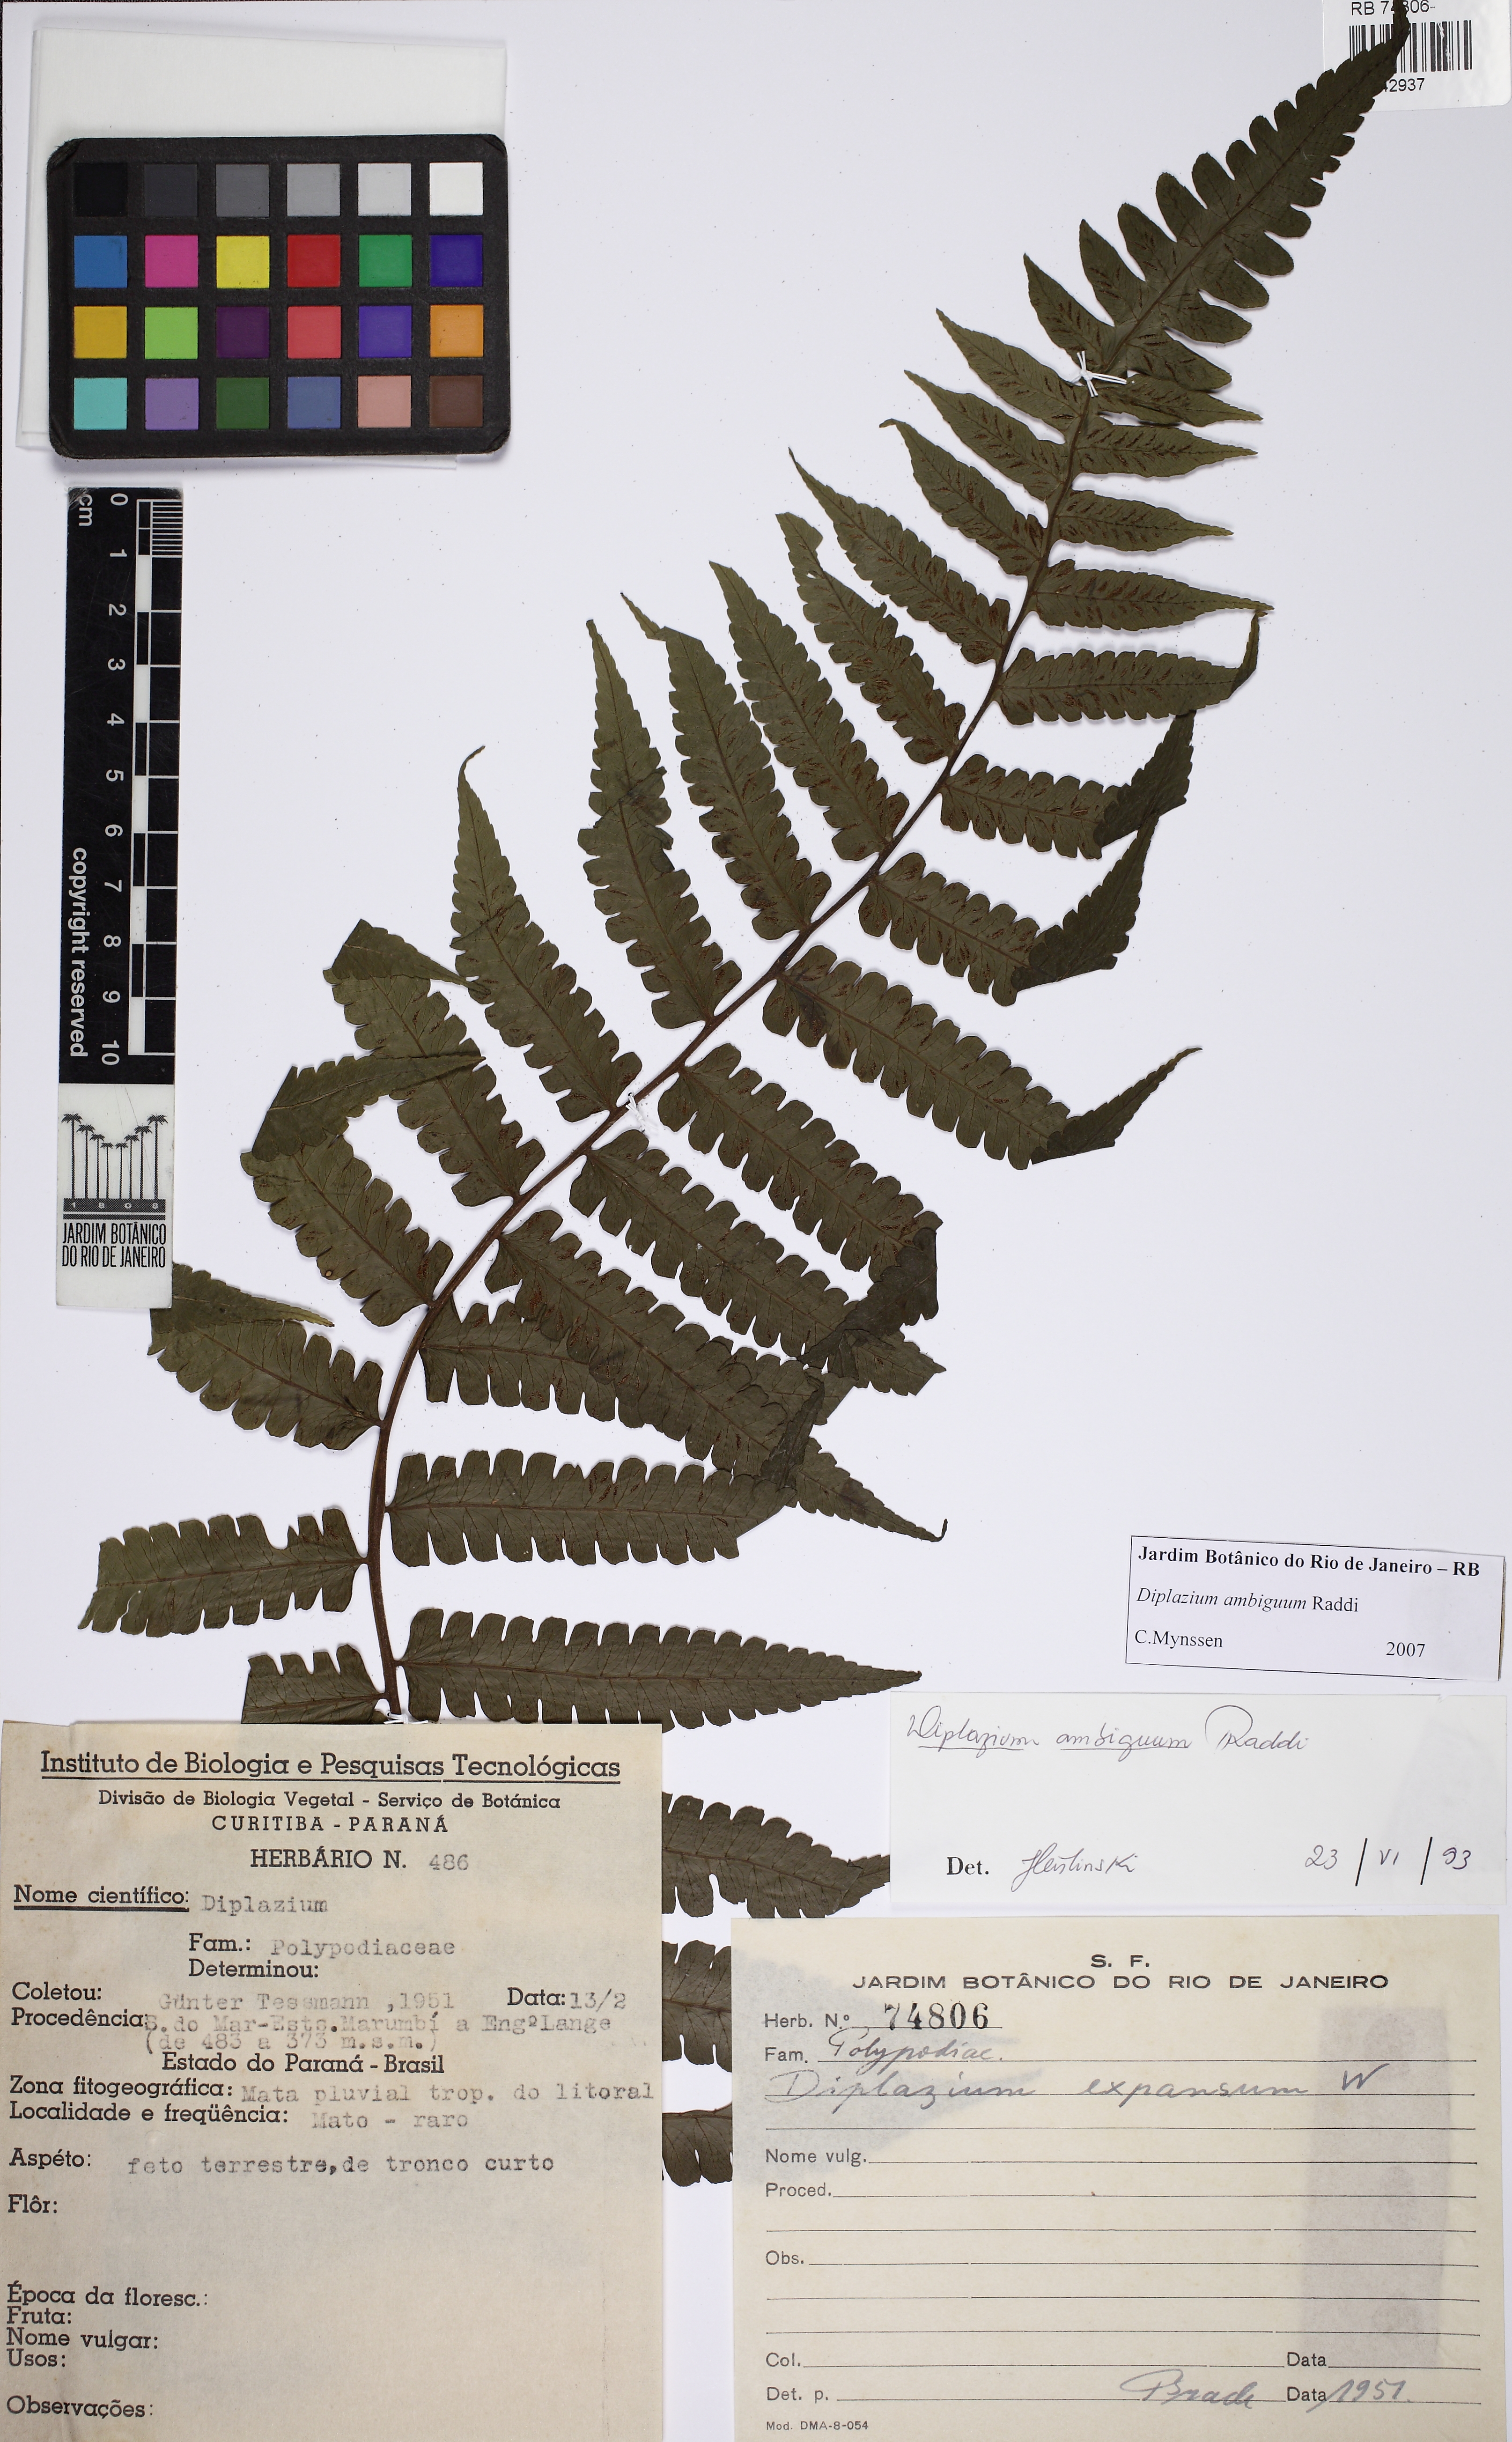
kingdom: Plantae
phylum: Tracheophyta
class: Polypodiopsida
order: Polypodiales
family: Athyriaceae
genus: Diplazium
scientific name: Diplazium ambiguum
